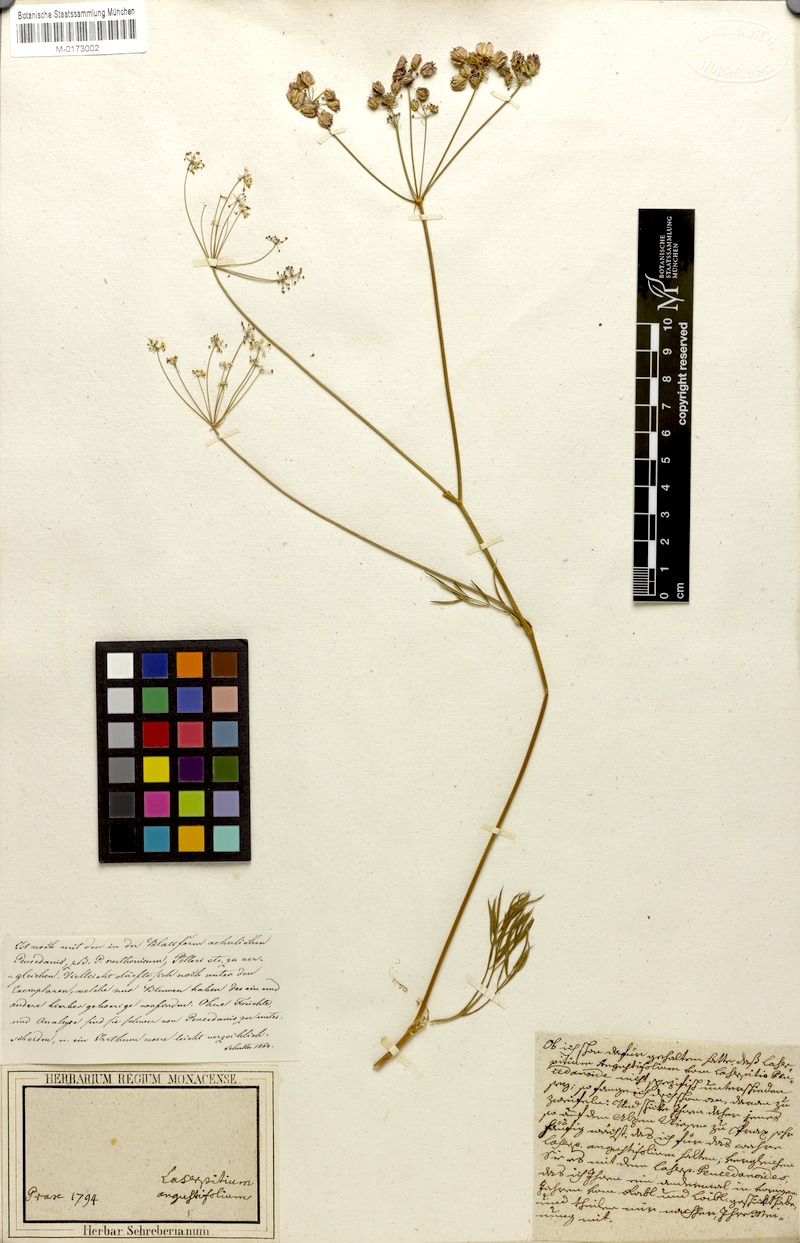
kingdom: Plantae
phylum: Tracheophyta
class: Magnoliopsida
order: Apiales
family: Apiaceae
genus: Laserpitium
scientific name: Laserpitium peucedanoides
